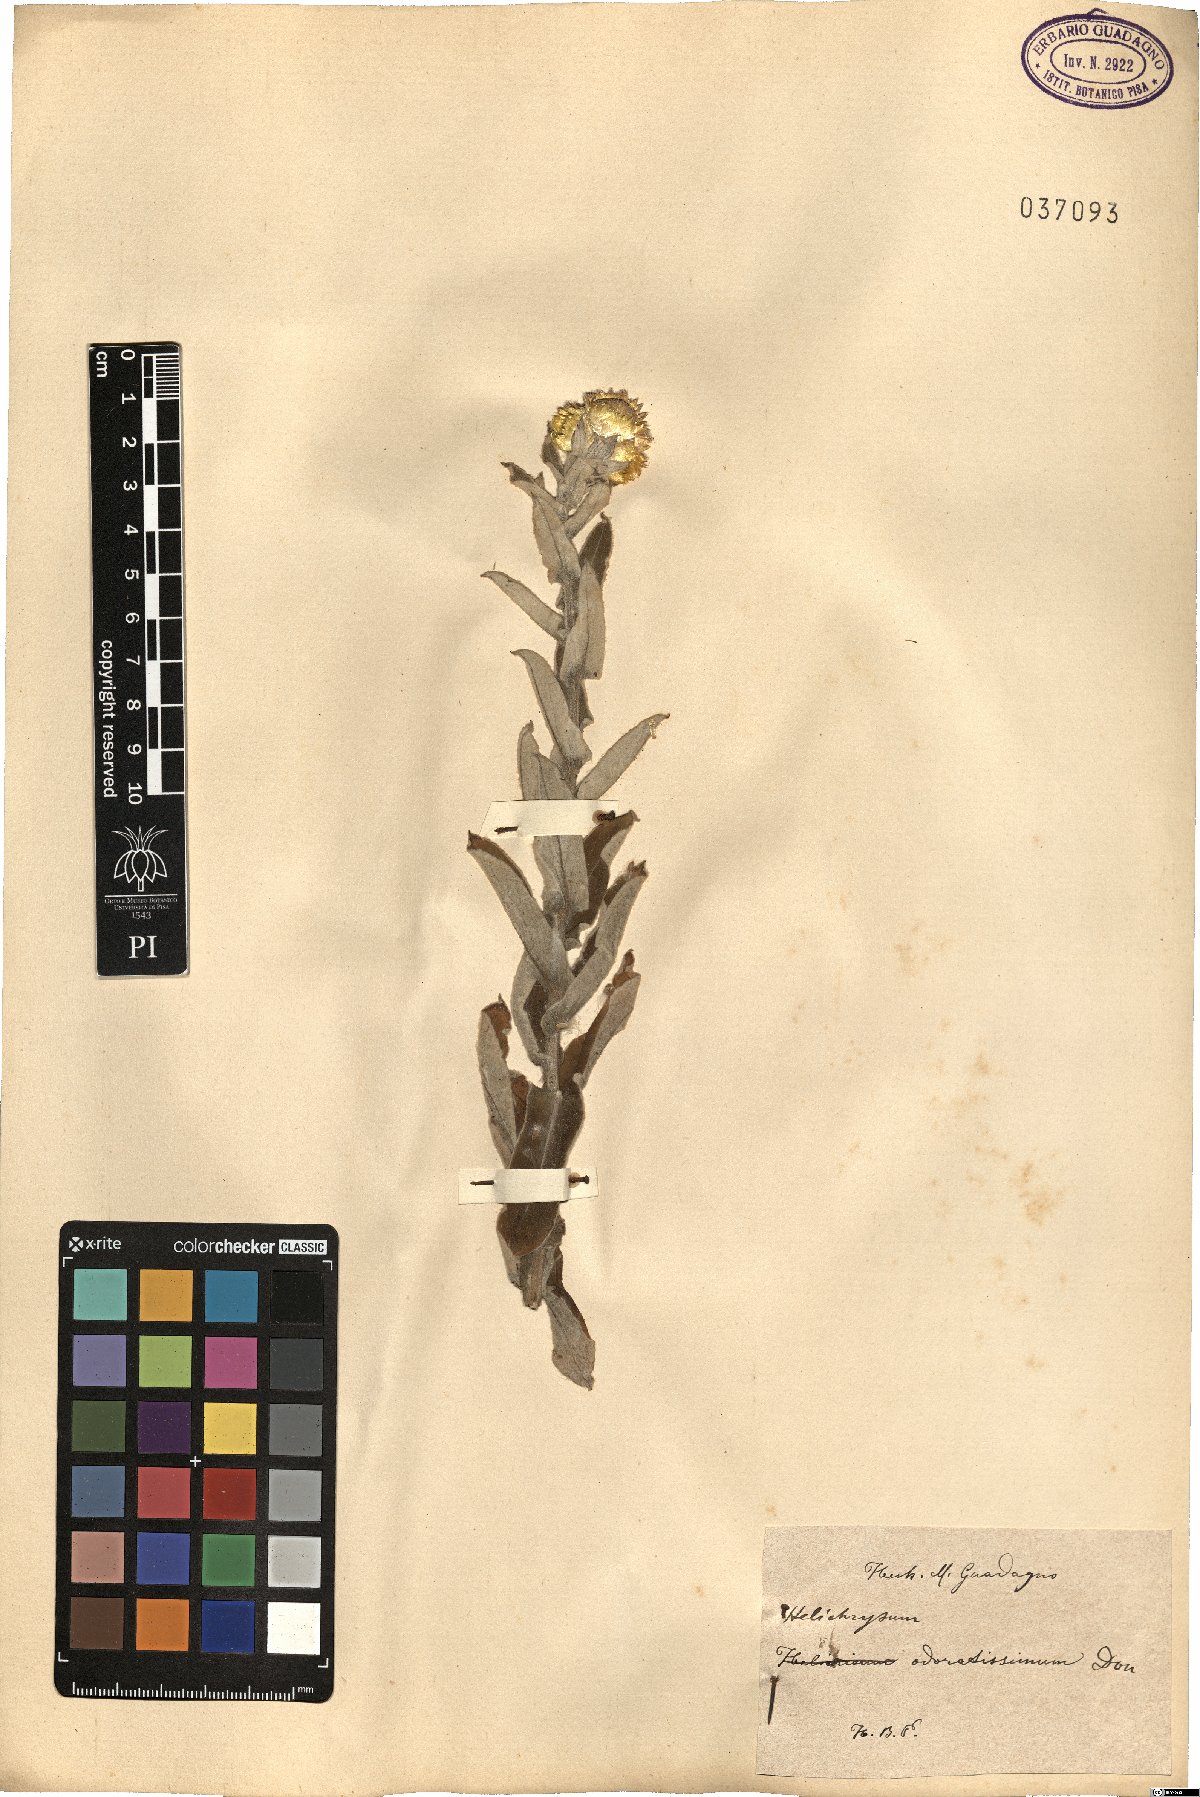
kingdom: Plantae
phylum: Tracheophyta
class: Magnoliopsida
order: Asterales
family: Asteraceae
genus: Helichrysum
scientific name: Helichrysum odoratissimum
